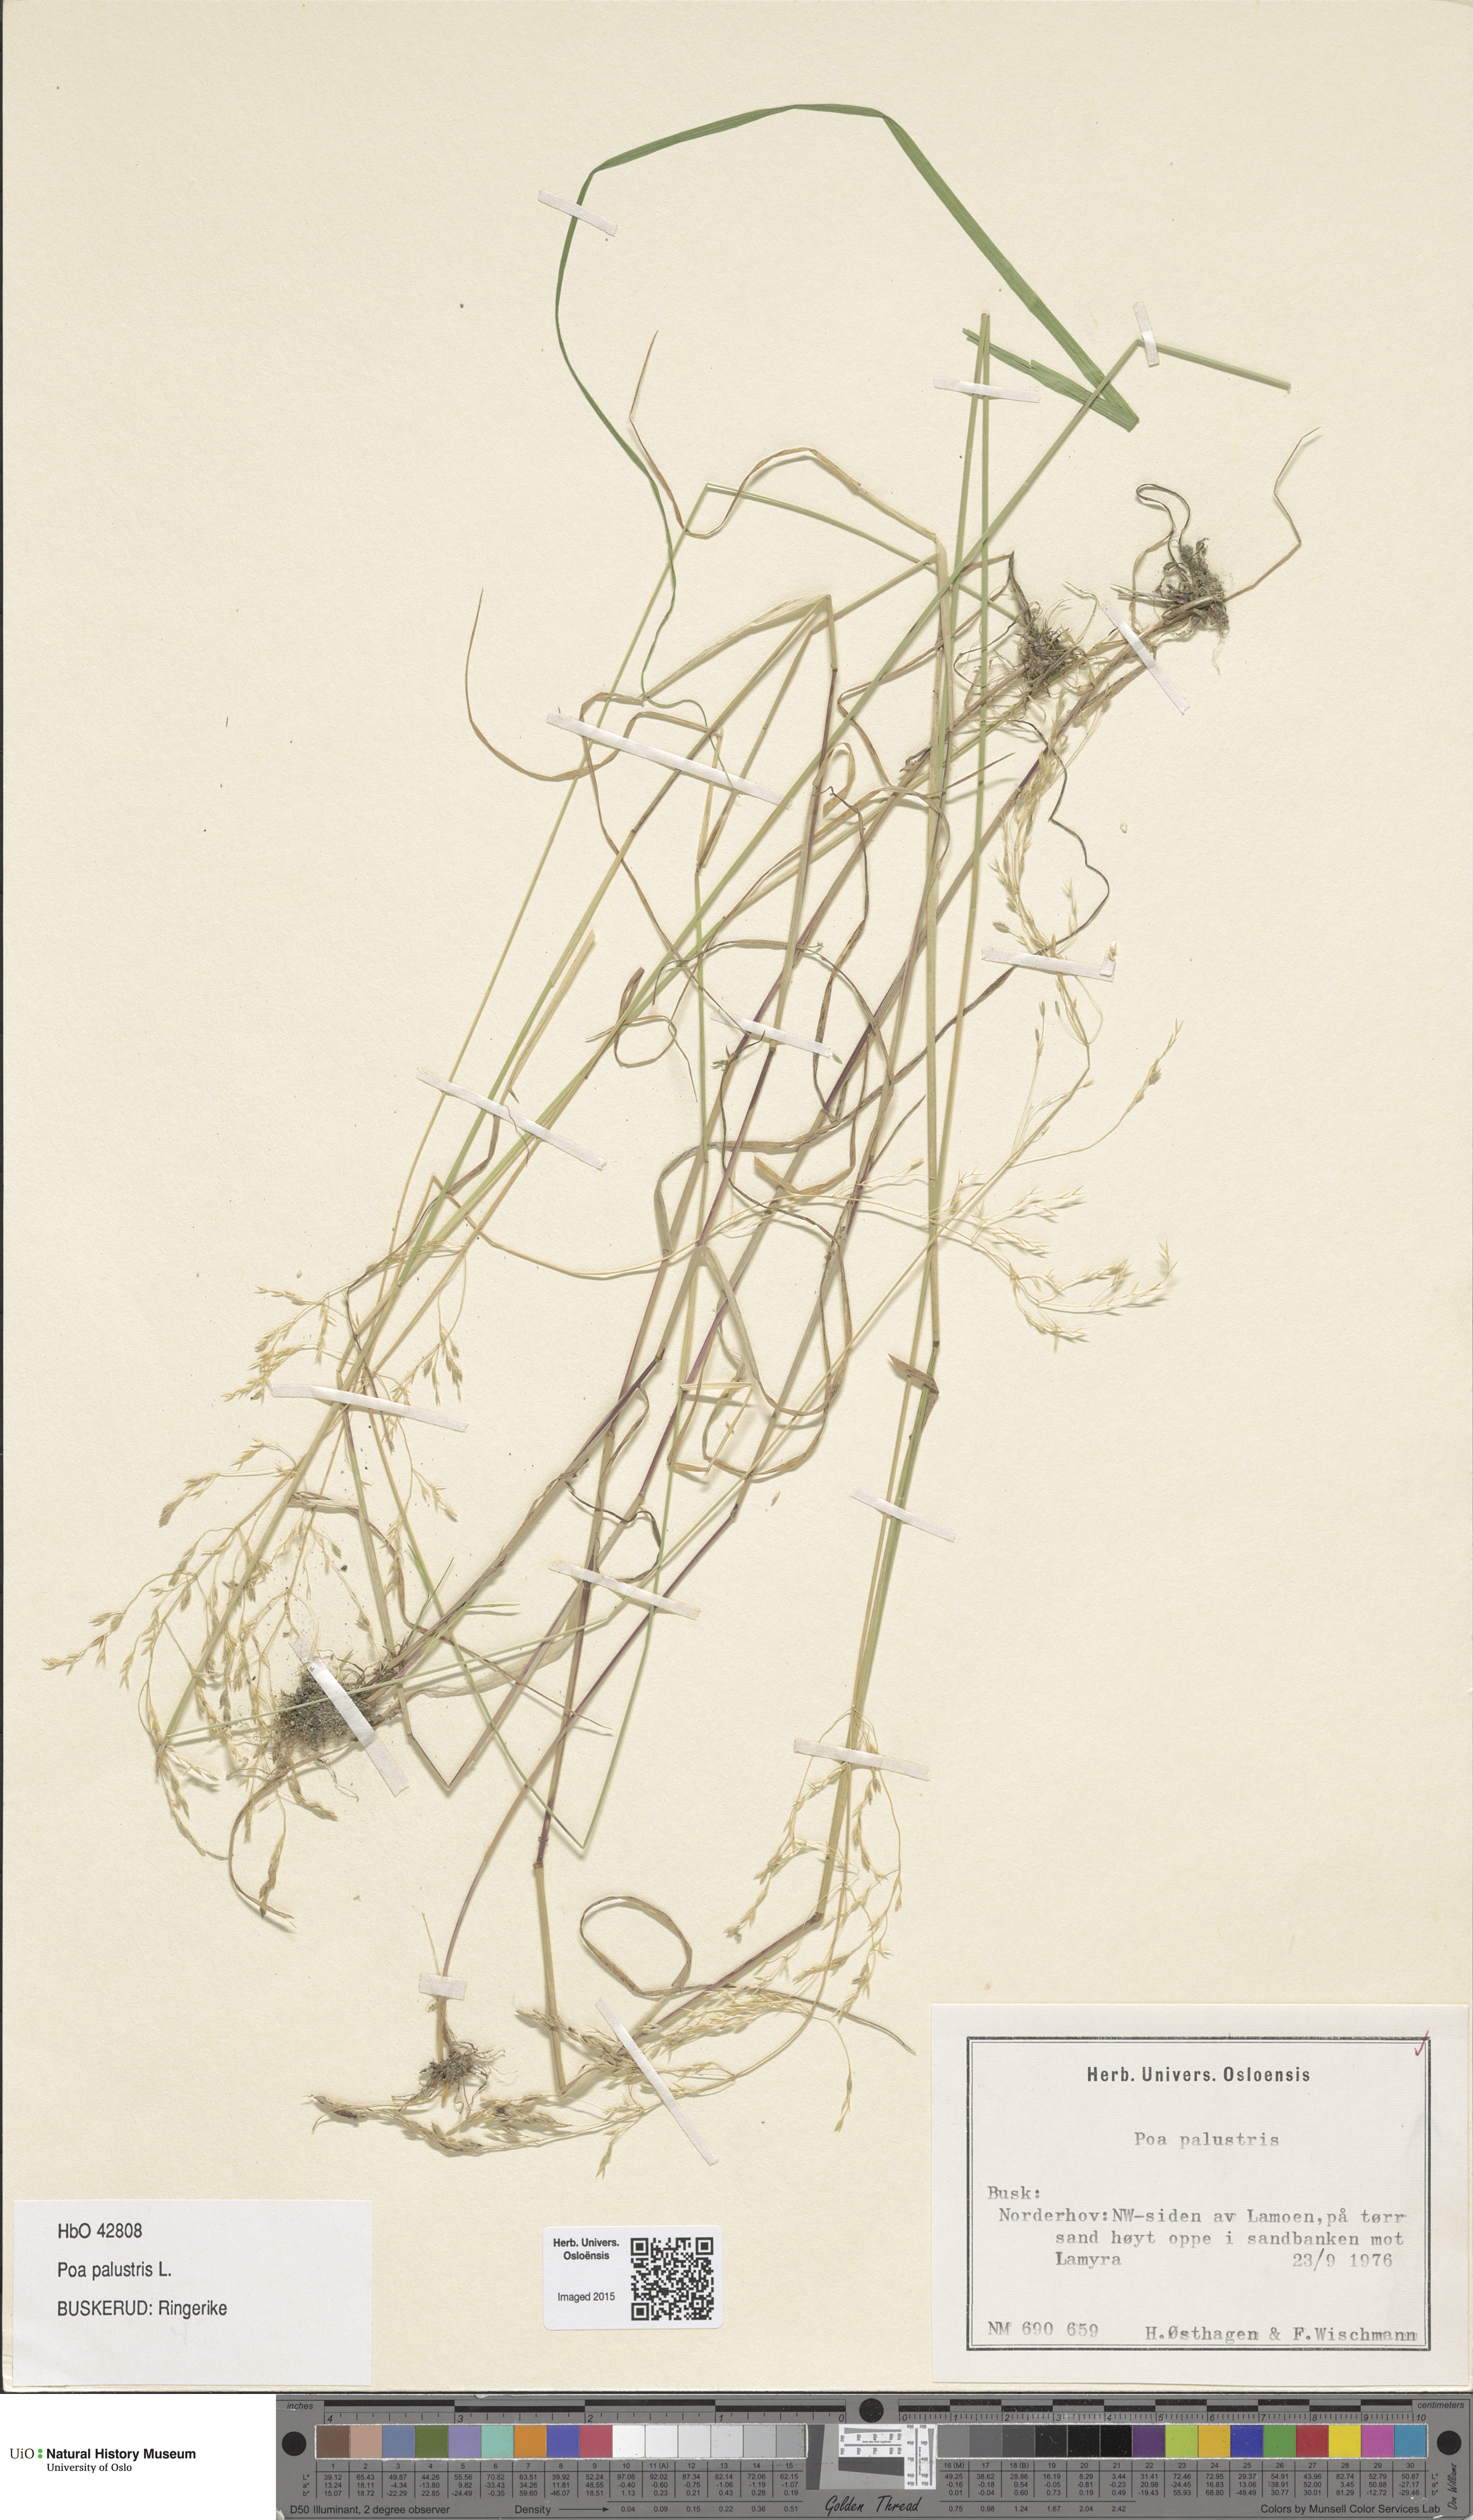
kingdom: Plantae
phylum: Tracheophyta
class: Liliopsida
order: Poales
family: Poaceae
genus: Poa
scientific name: Poa palustris
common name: Swamp meadow-grass
